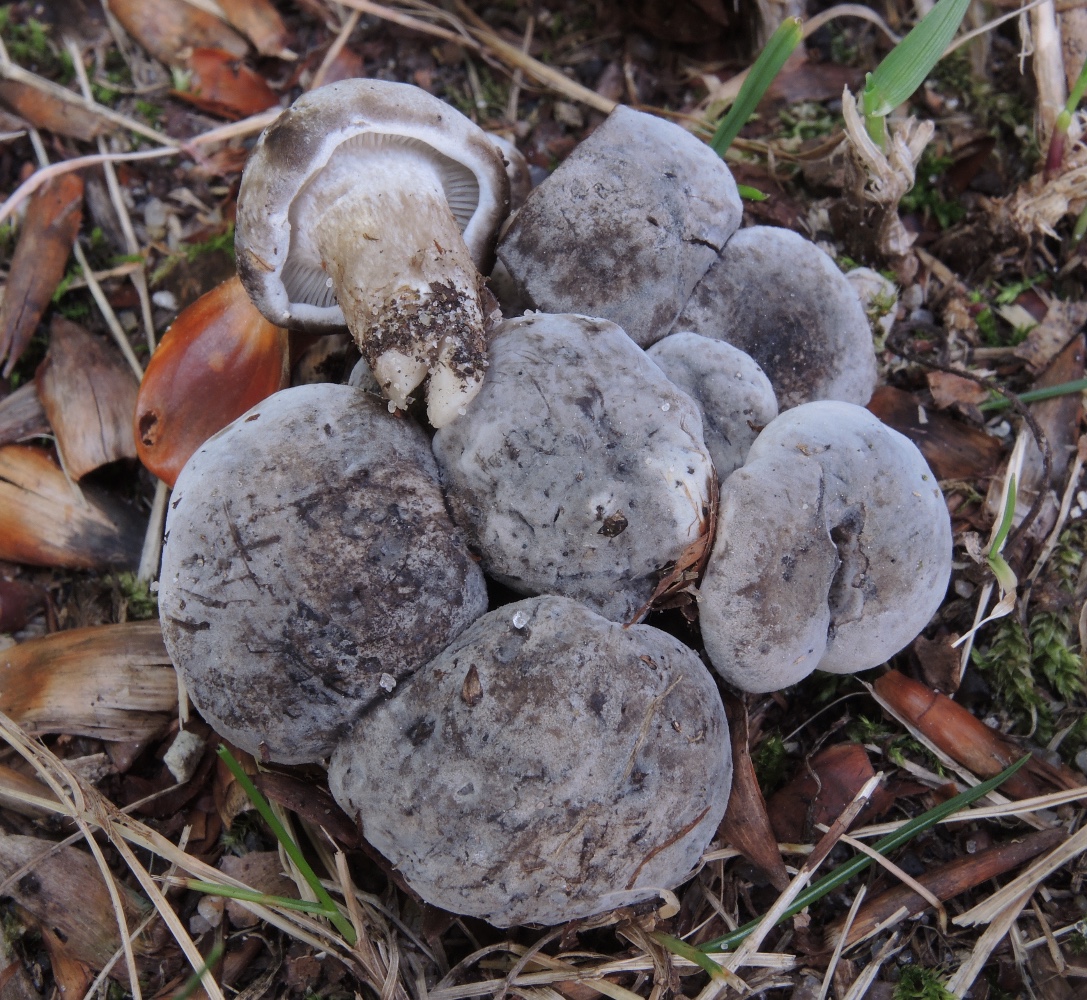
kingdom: Fungi
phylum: Basidiomycota
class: Agaricomycetes
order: Agaricales
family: Lyophyllaceae
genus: Lyophyllum
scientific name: Lyophyllum
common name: gråblad
